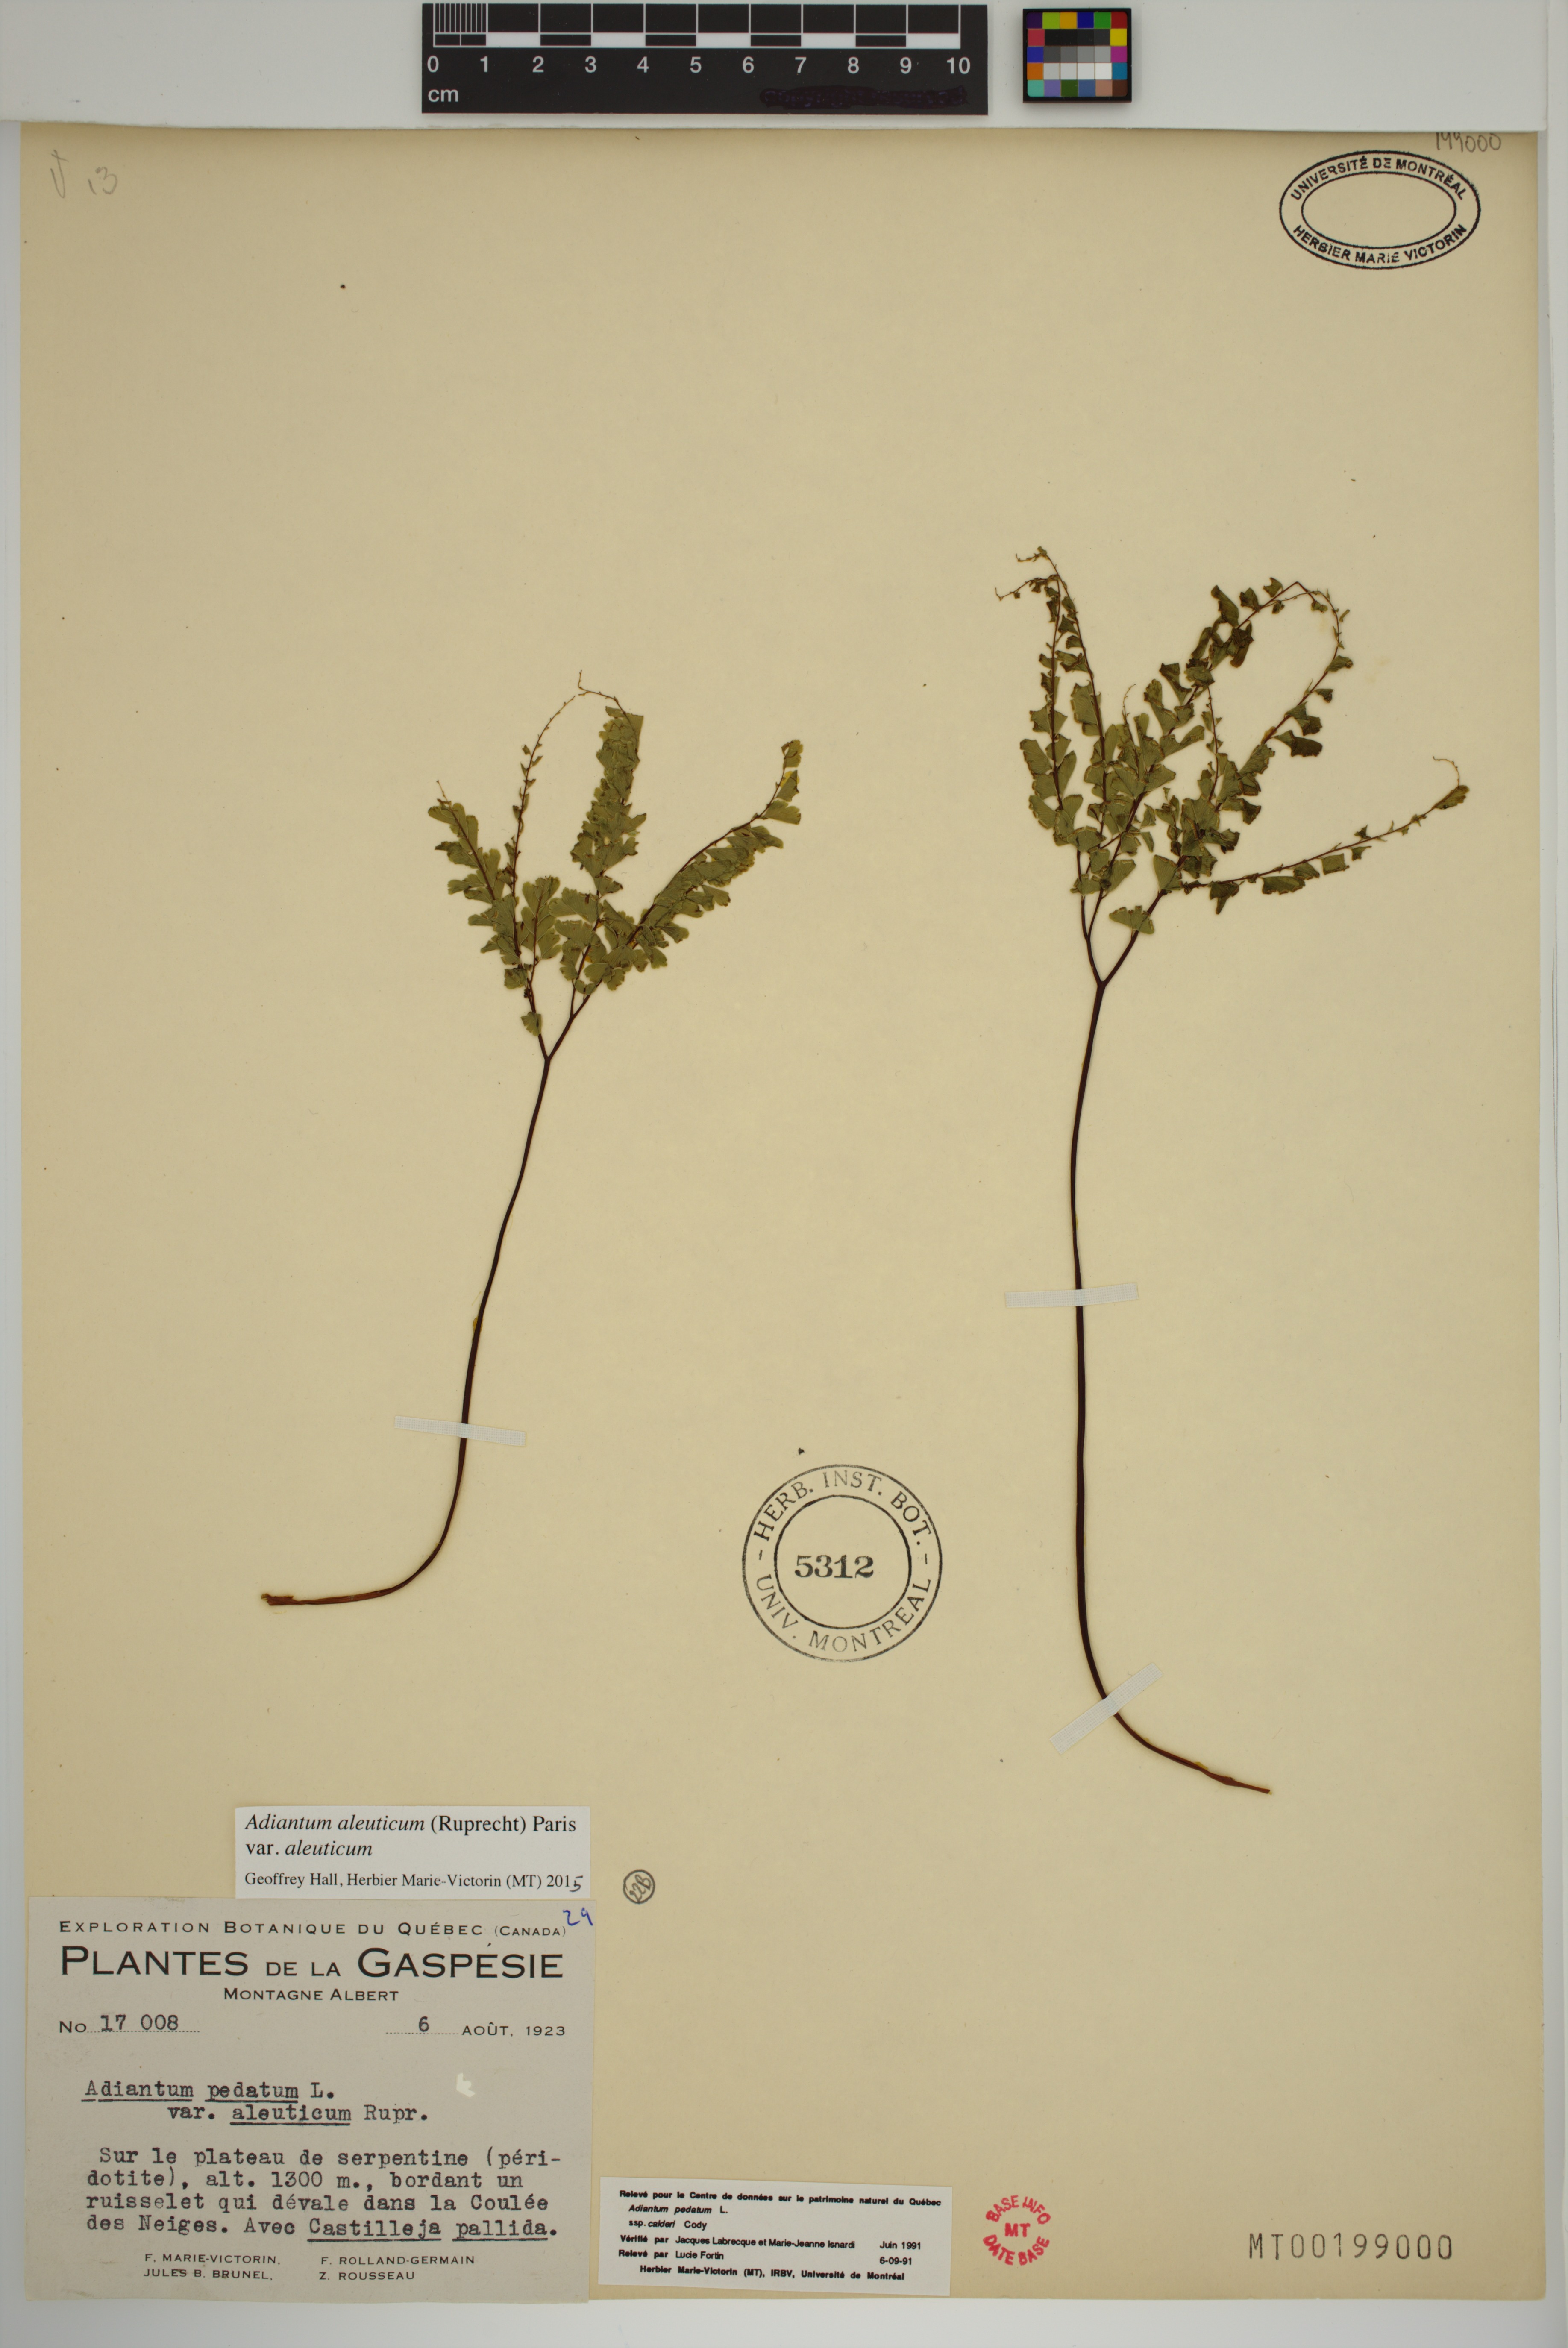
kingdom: Plantae
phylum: Tracheophyta
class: Polypodiopsida
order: Polypodiales
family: Pteridaceae
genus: Adiantum
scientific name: Adiantum aleuticum
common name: Aleutian maidenhair fern
